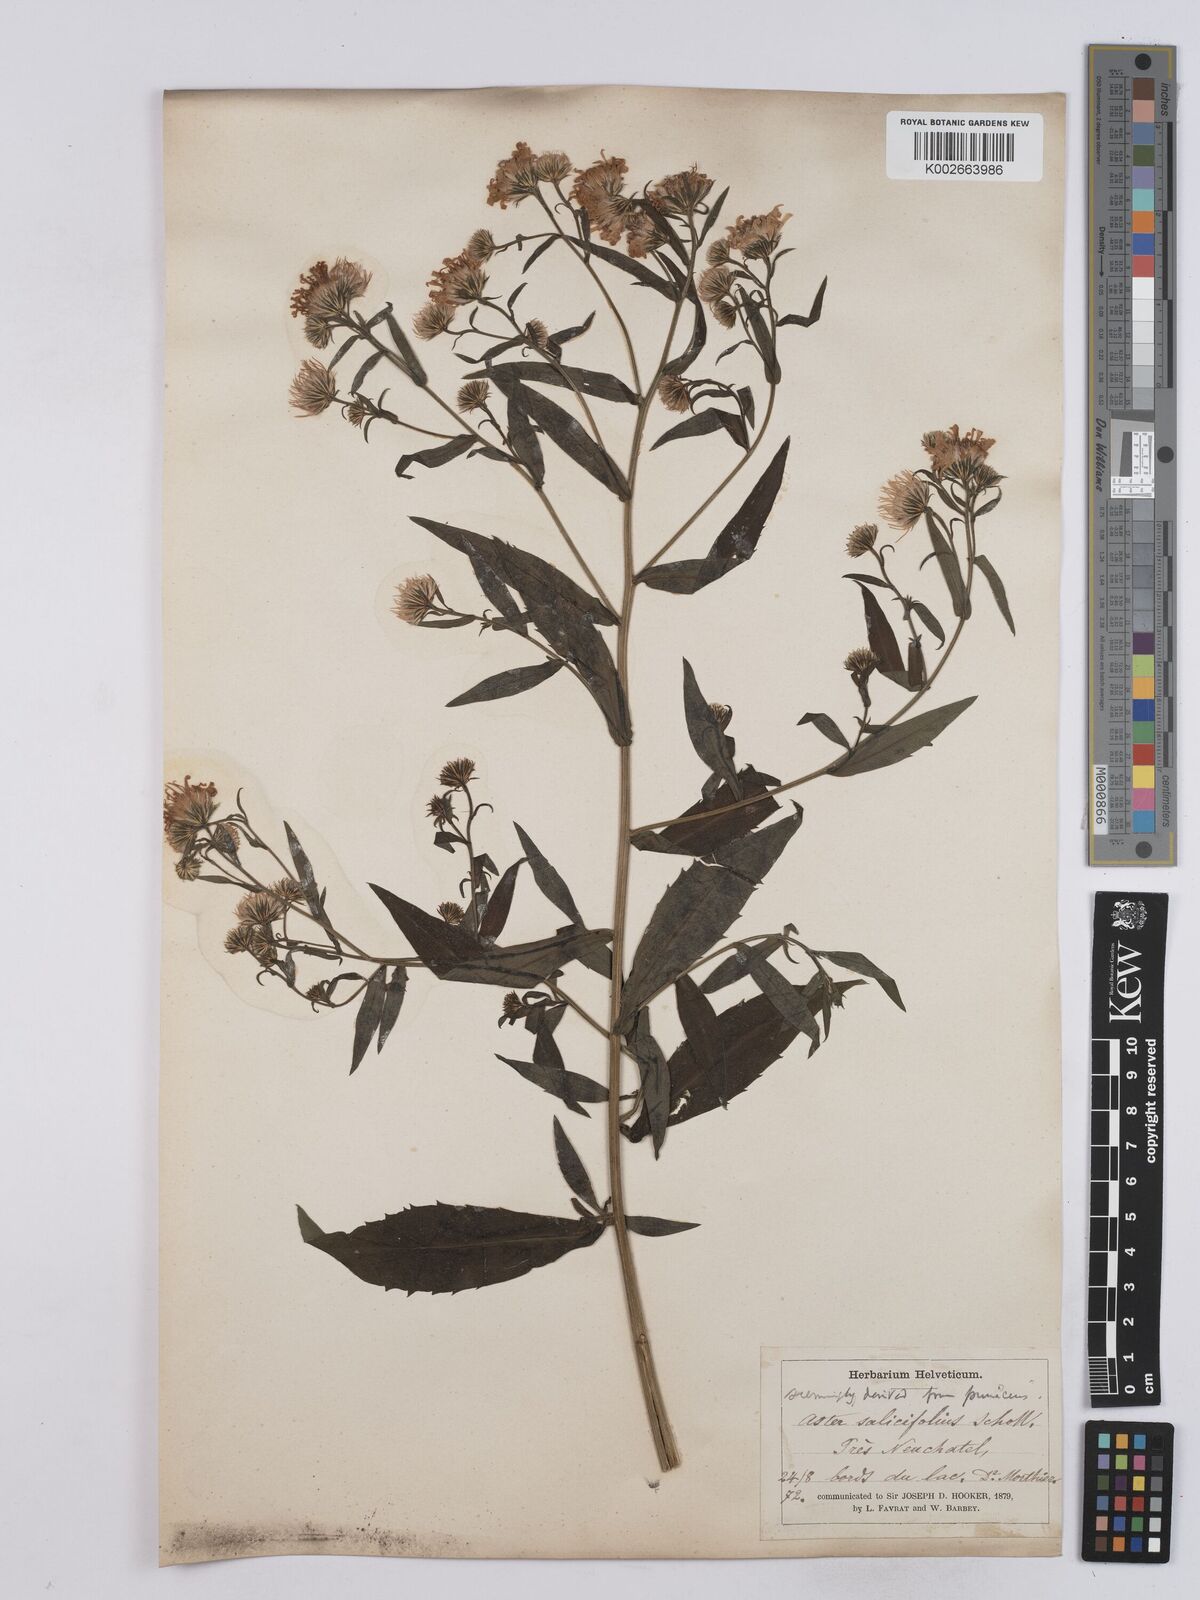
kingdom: Plantae
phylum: Tracheophyta
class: Magnoliopsida
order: Asterales
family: Asteraceae
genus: Symphyotrichum
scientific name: Symphyotrichum puniceum
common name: Bog aster
